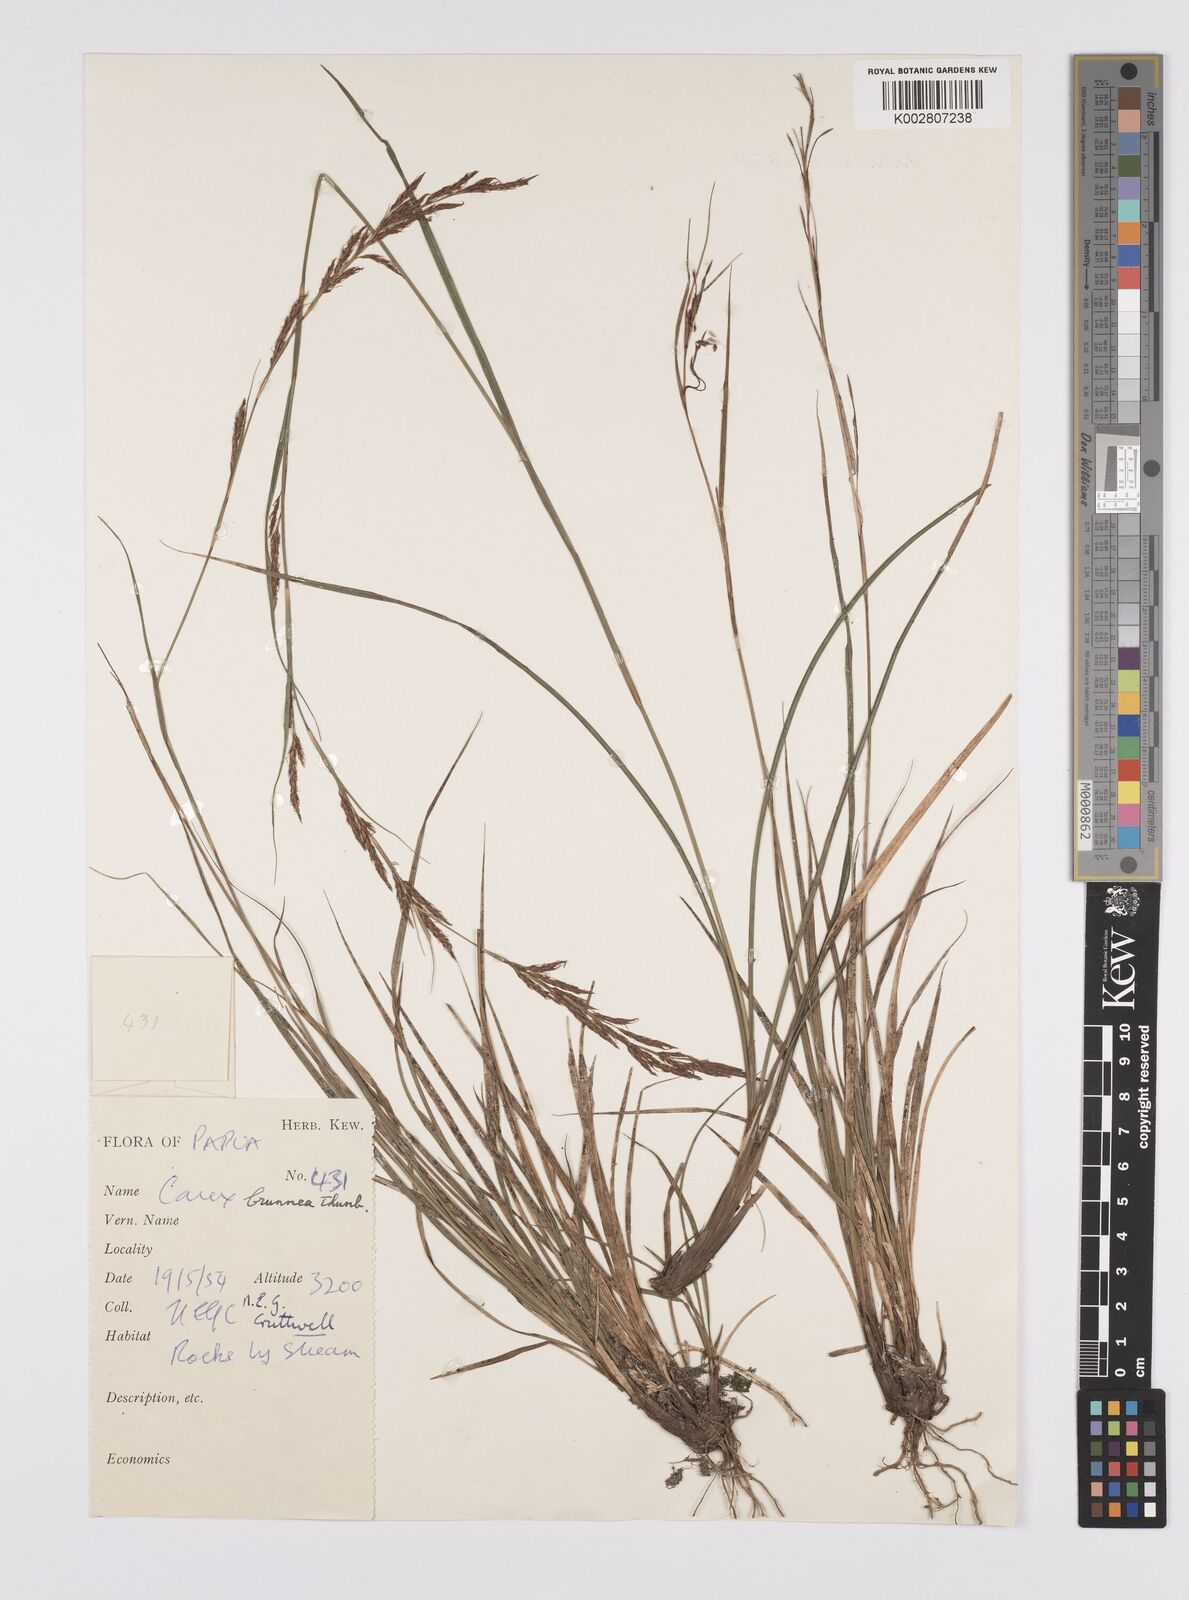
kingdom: Plantae
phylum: Tracheophyta
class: Liliopsida
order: Poales
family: Cyperaceae
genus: Carex
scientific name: Carex brunnea
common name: Greater brown sedge
